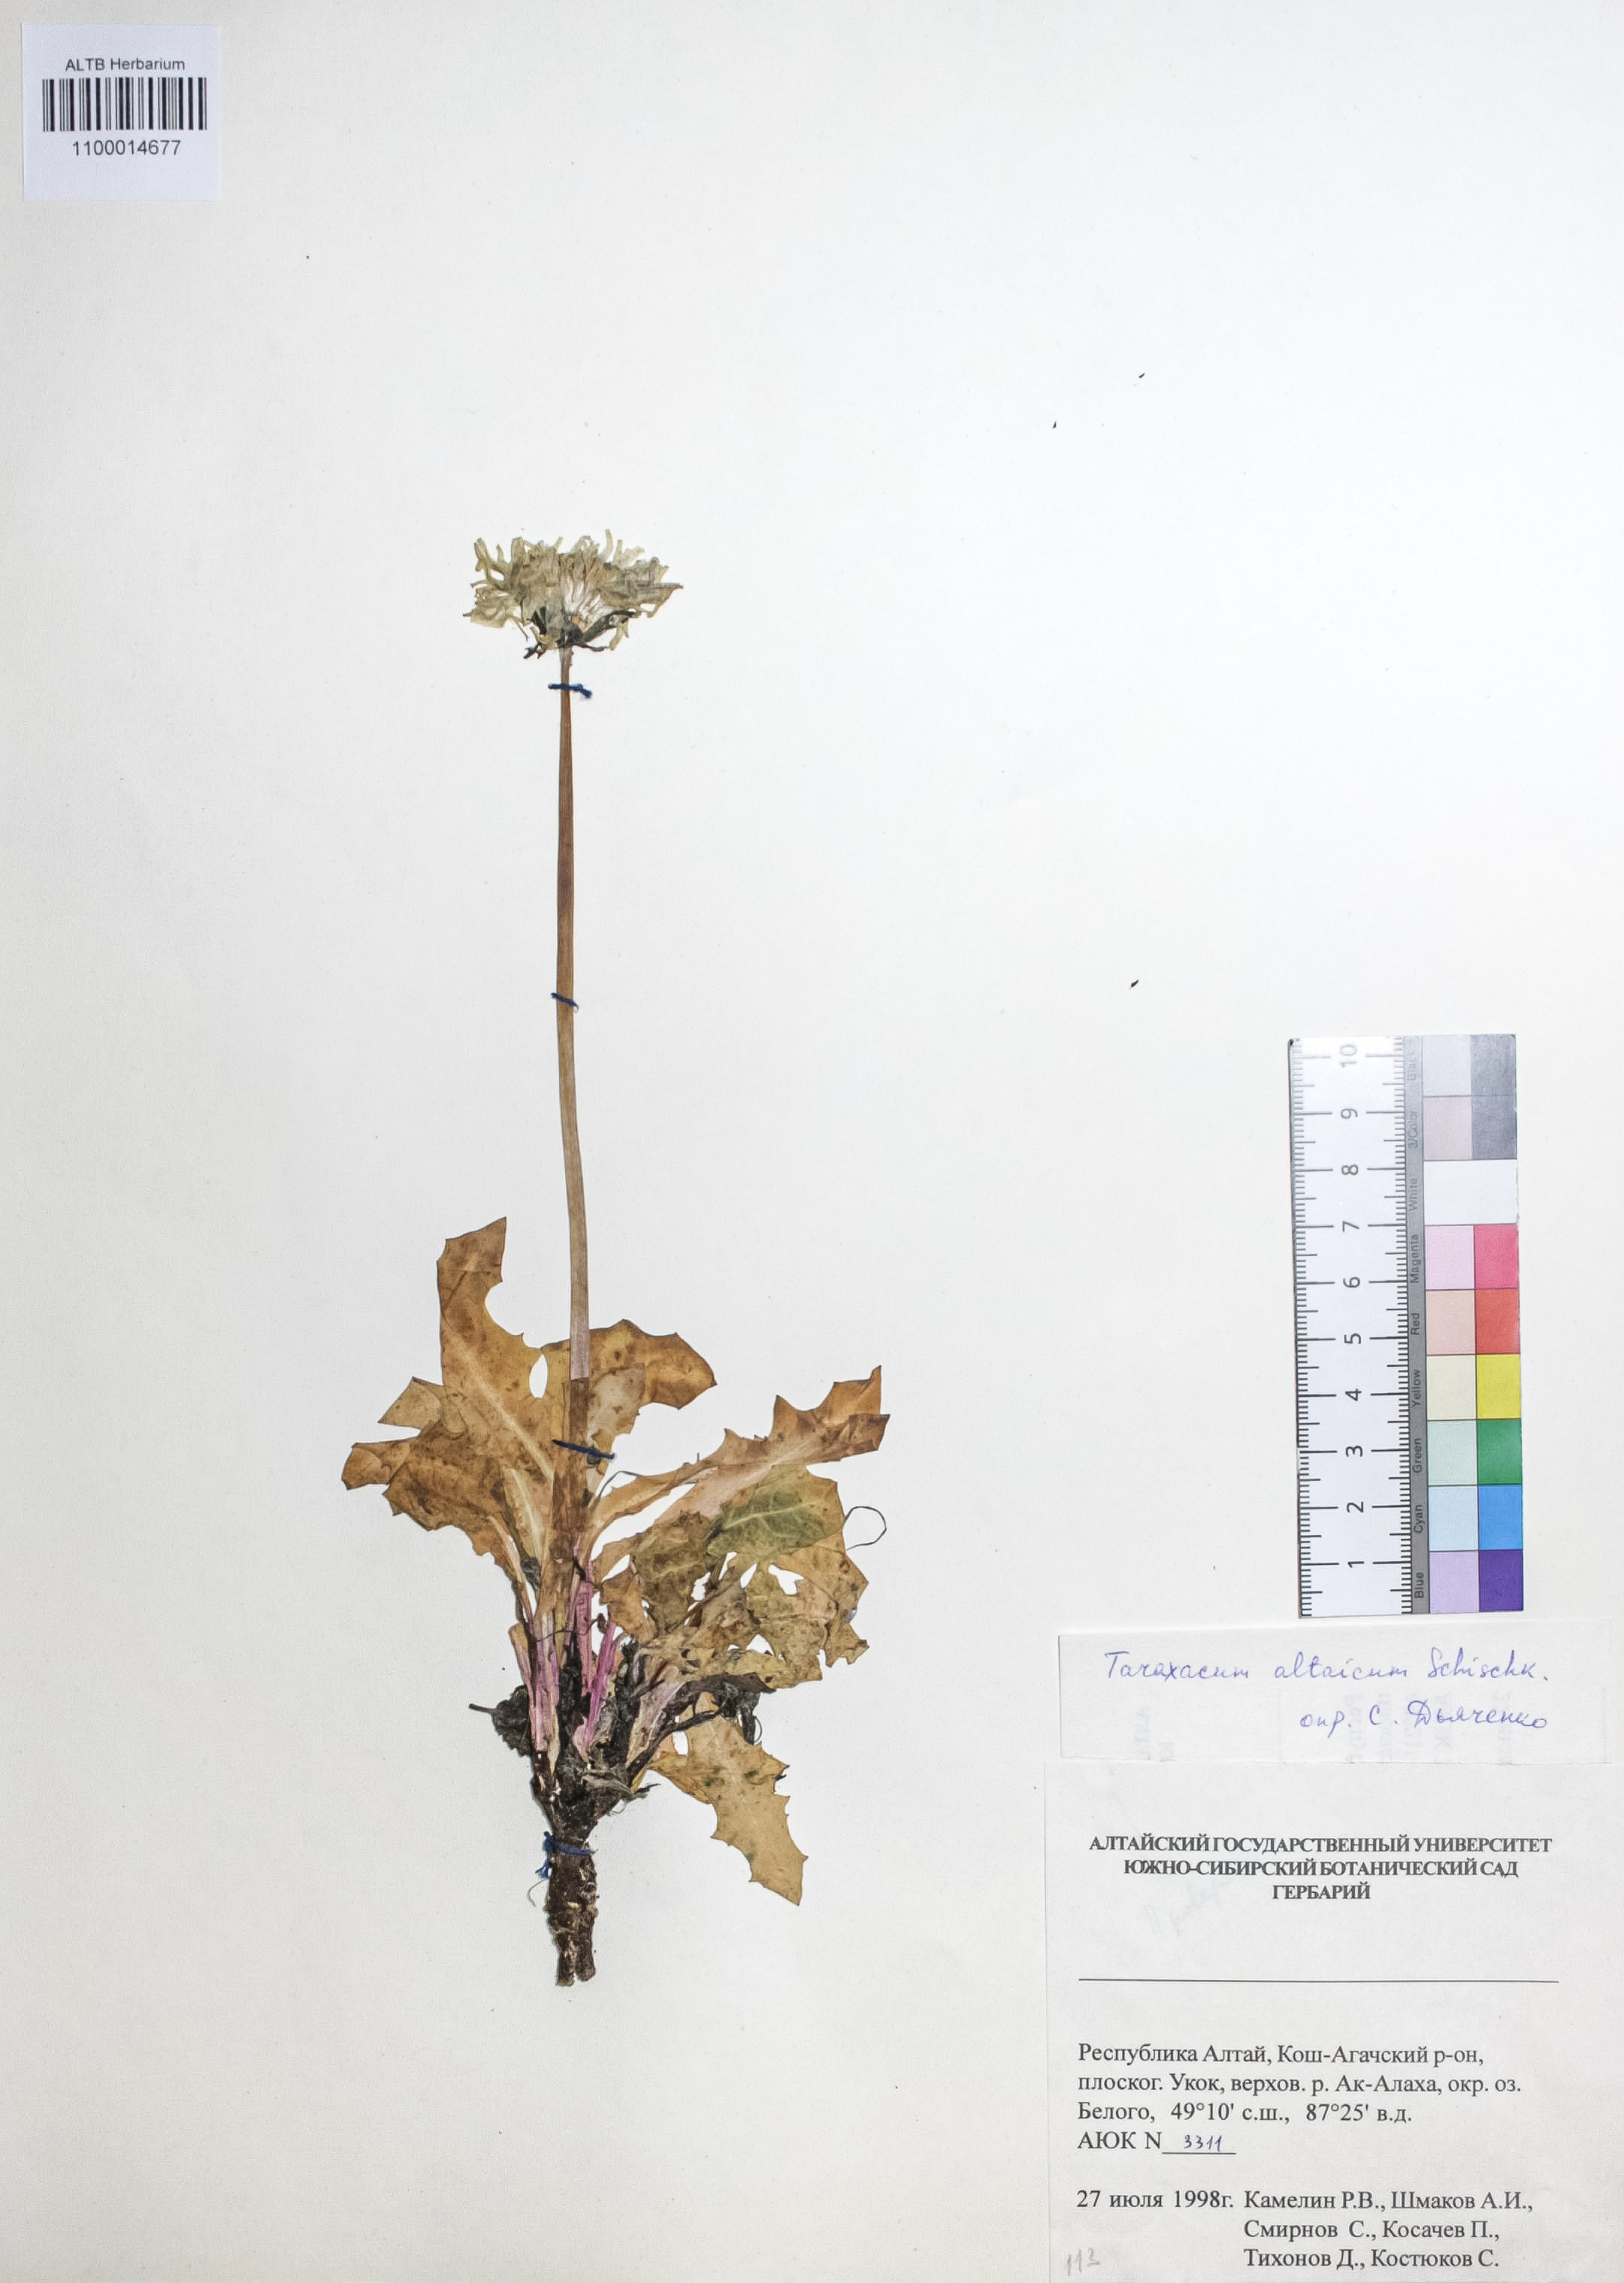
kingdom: Plantae
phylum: Tracheophyta
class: Magnoliopsida
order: Asterales
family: Asteraceae
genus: Taraxacum
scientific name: Taraxacum ceratophorum
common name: Horn-bearing dandelion
